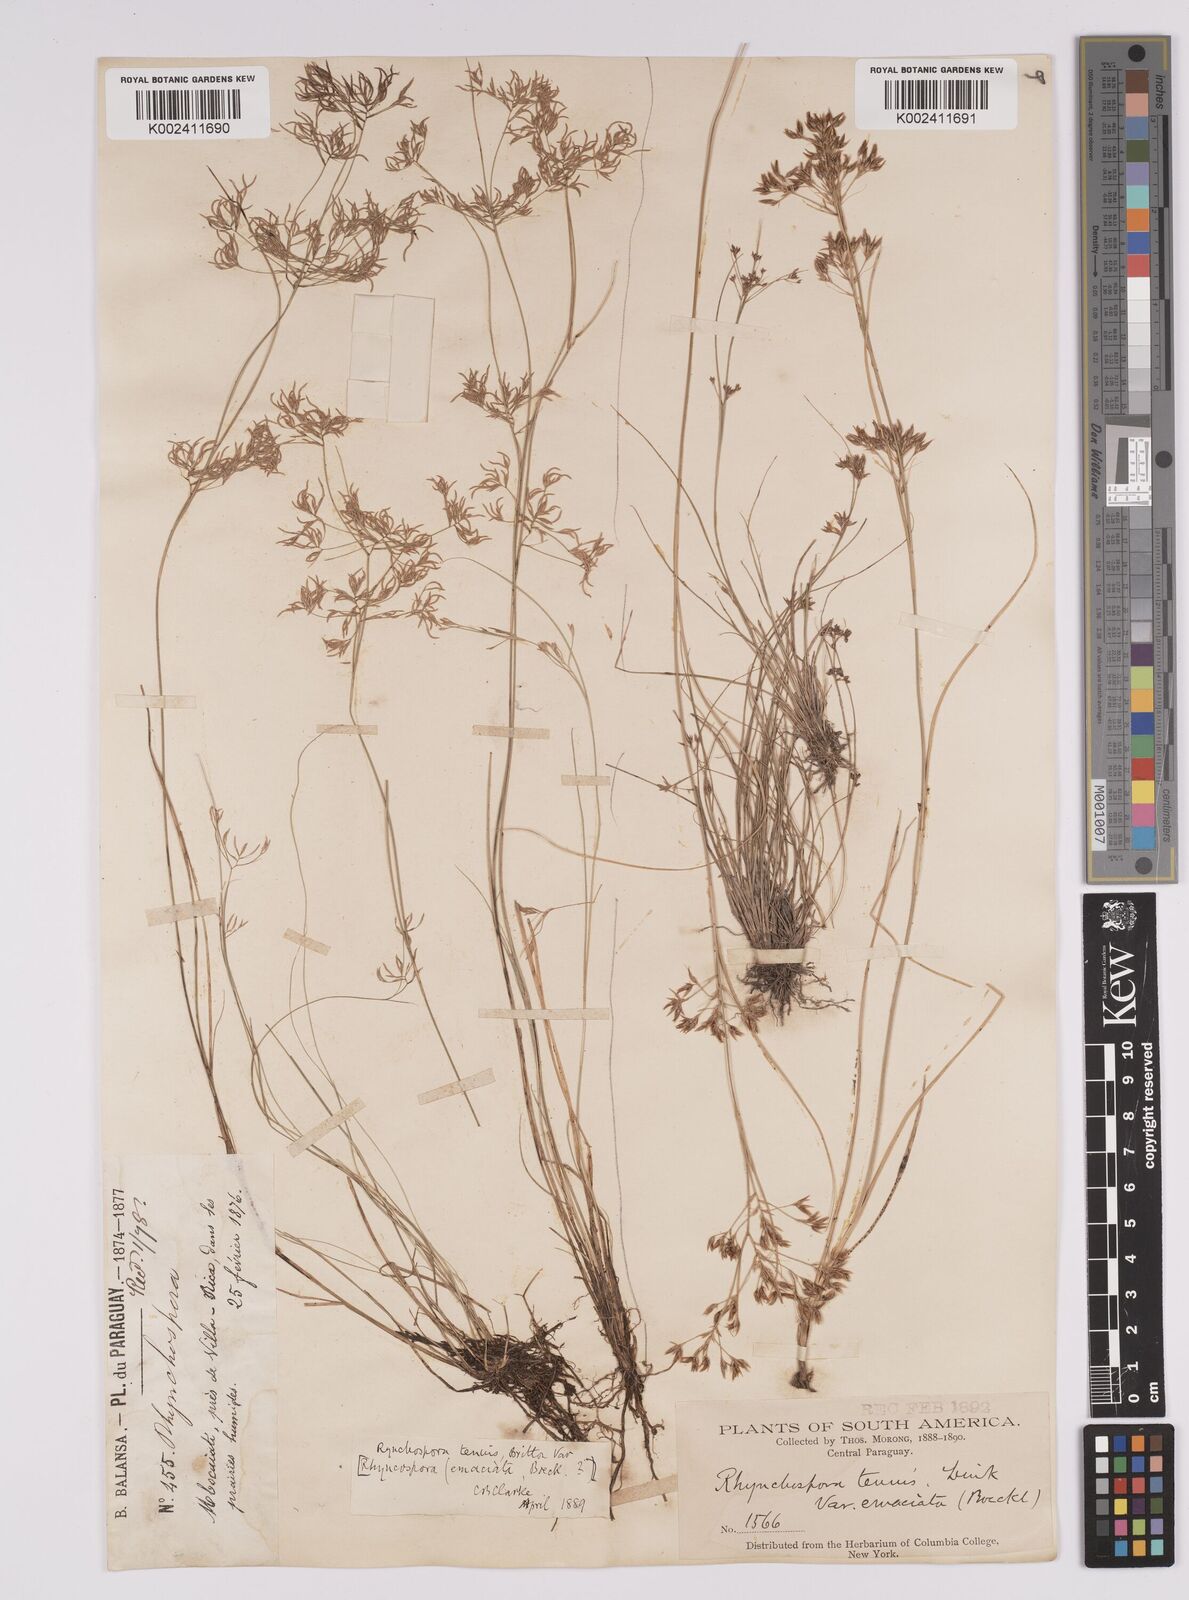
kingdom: Plantae
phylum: Tracheophyta
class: Liliopsida
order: Poales
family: Cyperaceae
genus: Rhynchospora
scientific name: Rhynchospora tenuis
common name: Quill beaksedge
